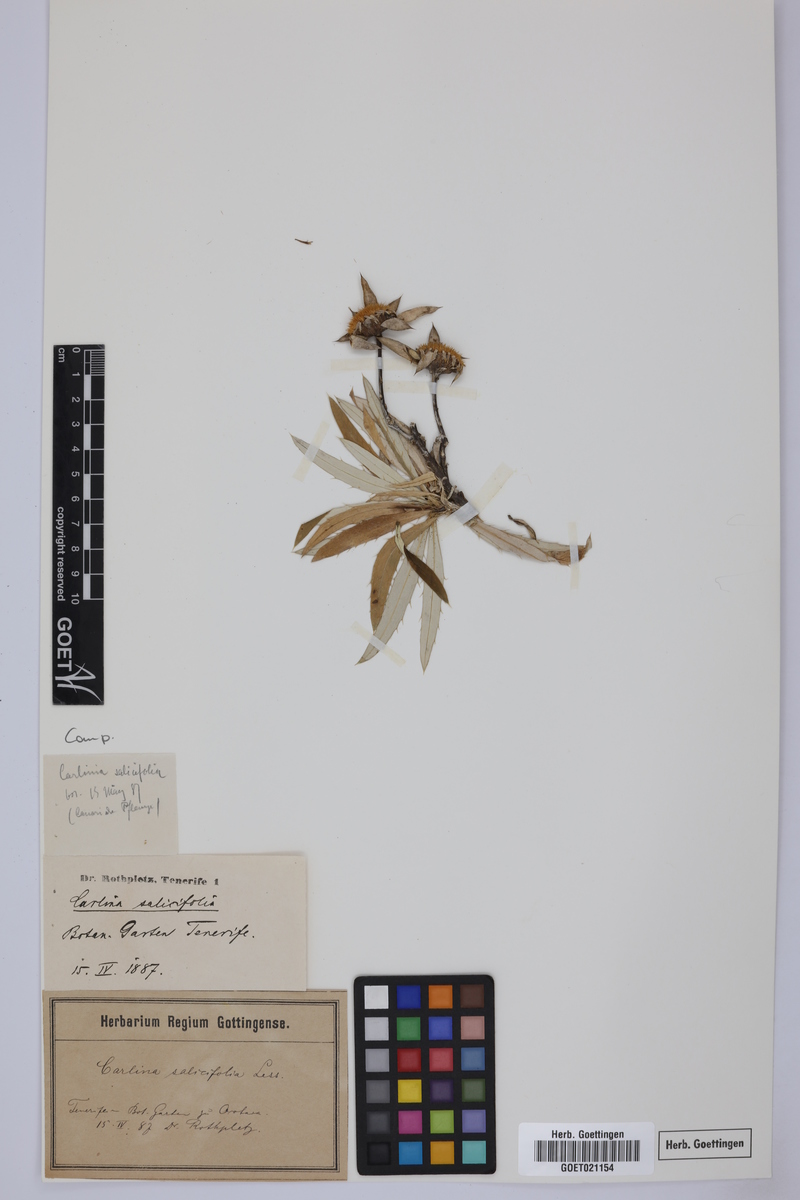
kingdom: Plantae
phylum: Tracheophyta
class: Magnoliopsida
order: Asterales
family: Asteraceae
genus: Carlina
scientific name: Carlina salicifolia
